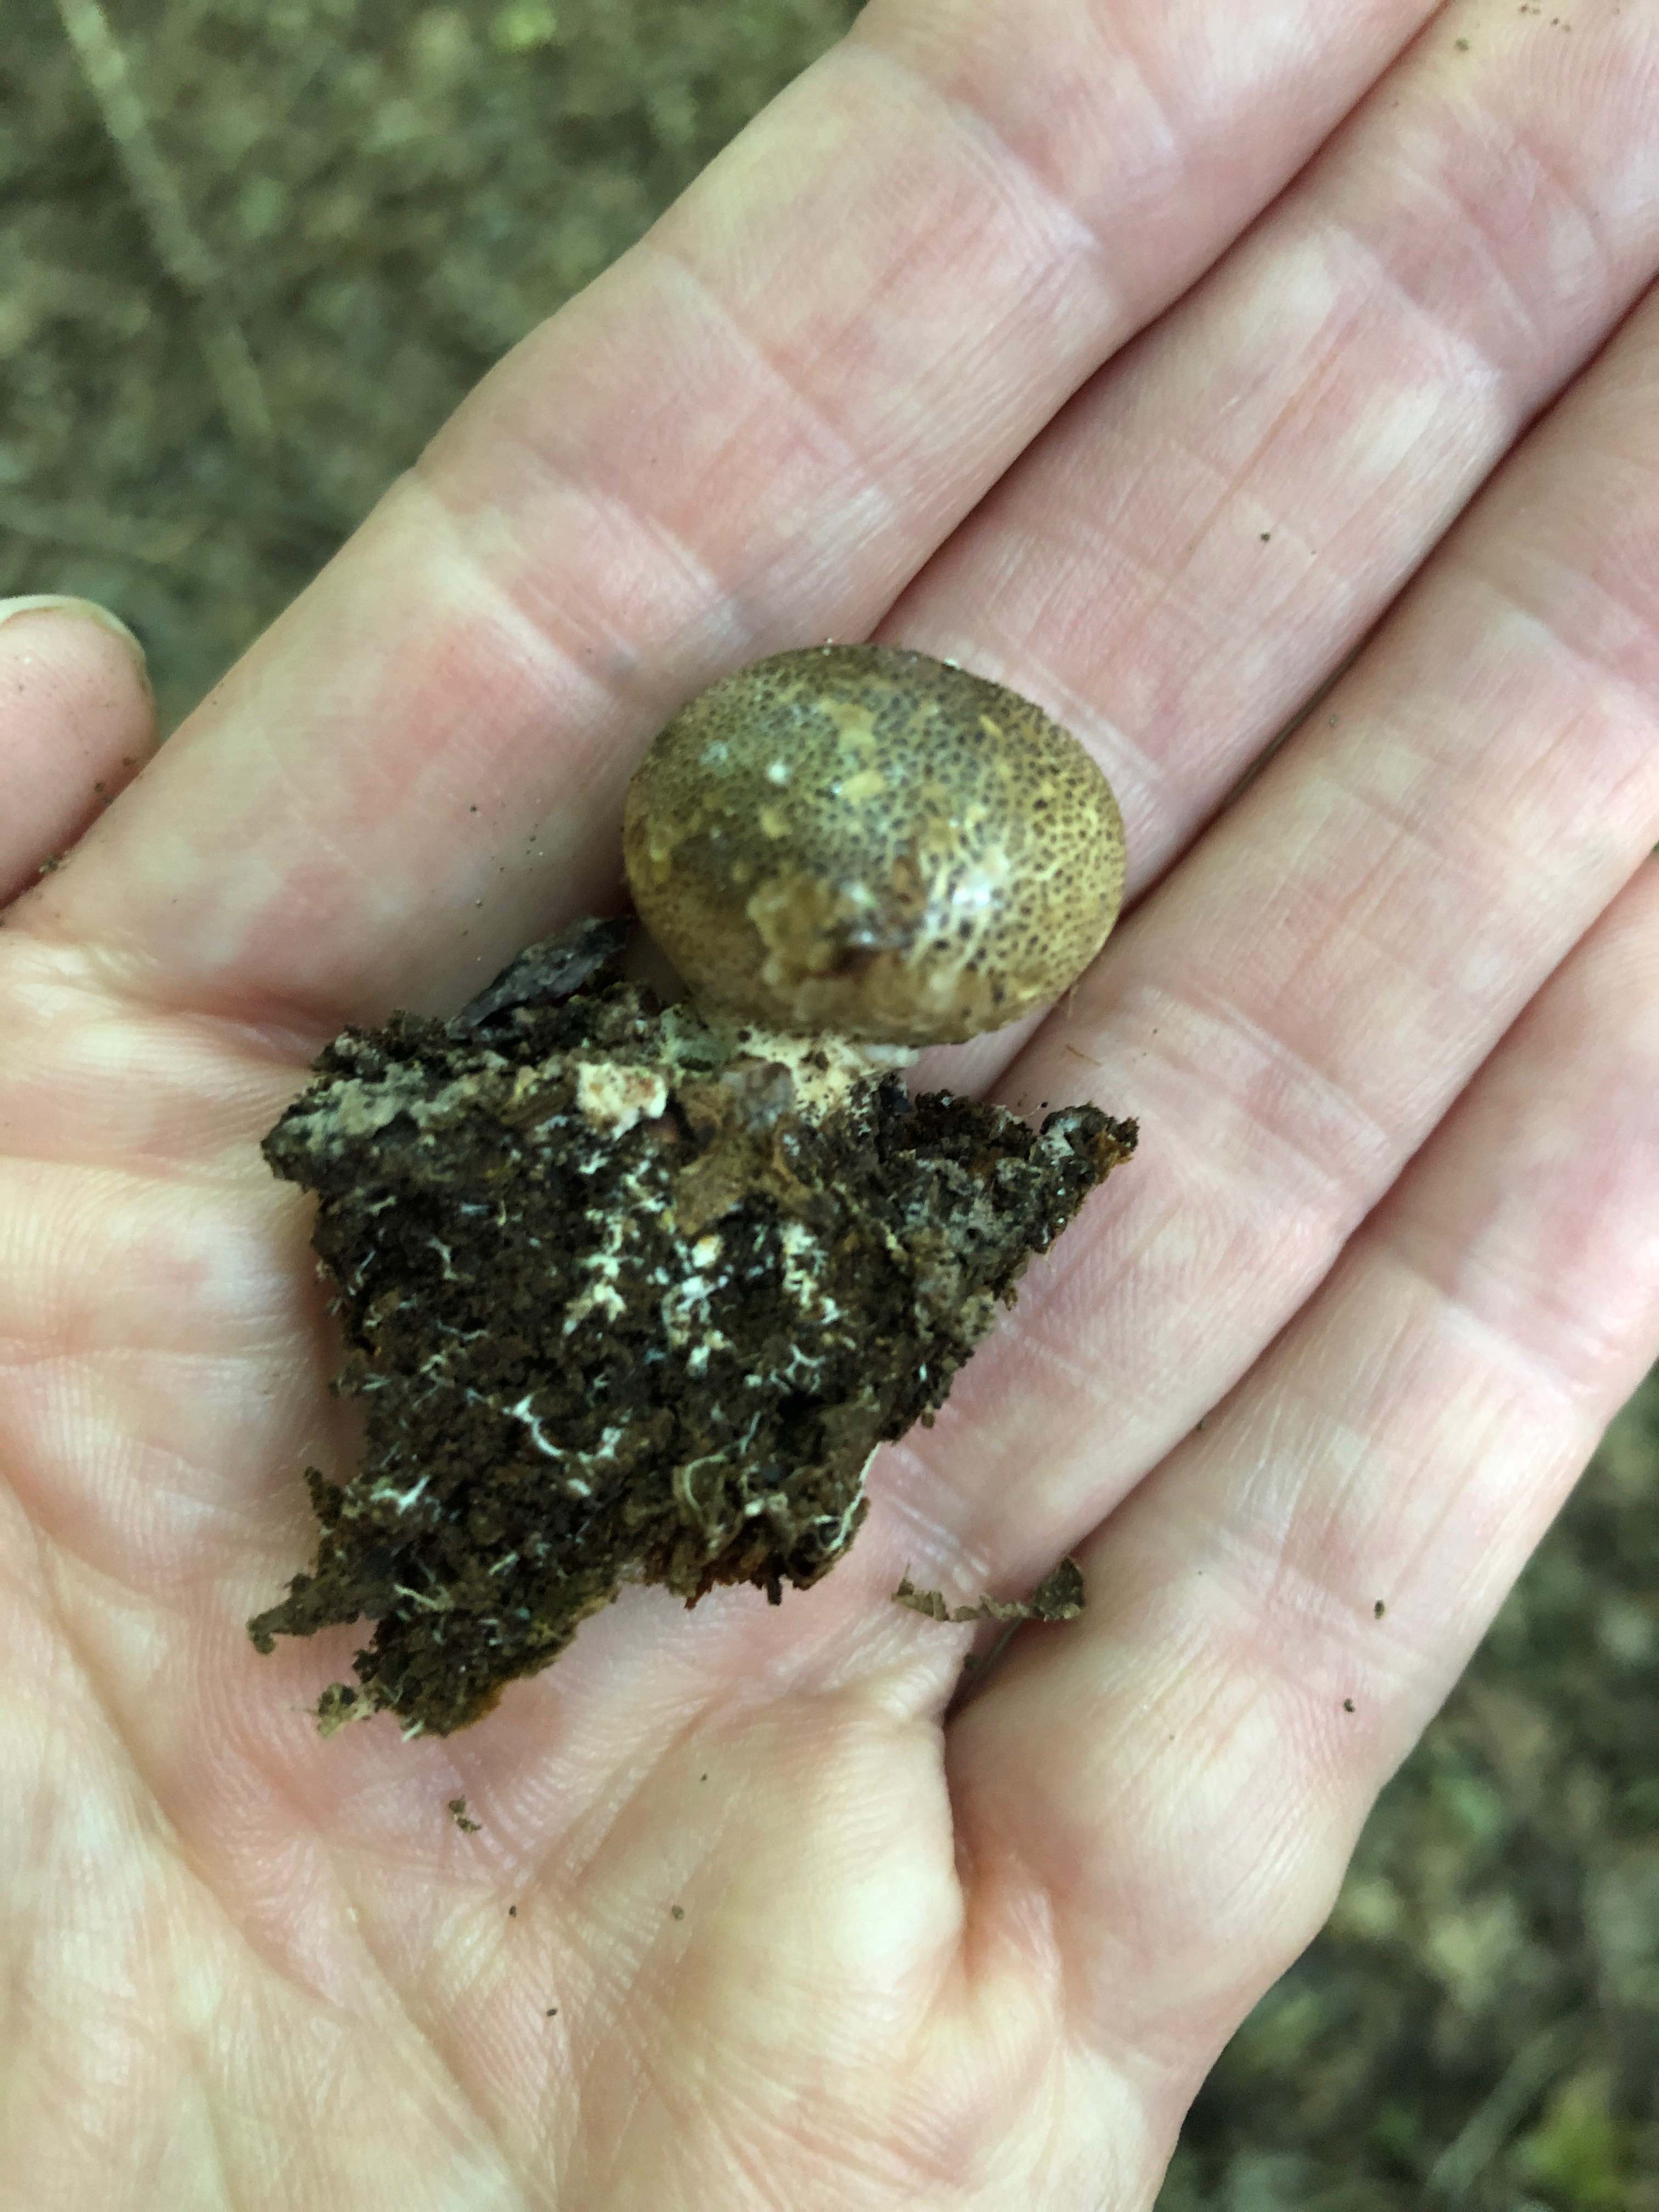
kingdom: Fungi
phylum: Basidiomycota
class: Agaricomycetes
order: Boletales
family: Sclerodermataceae
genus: Scleroderma
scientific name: Scleroderma areolatum
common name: plettet bruskbold
